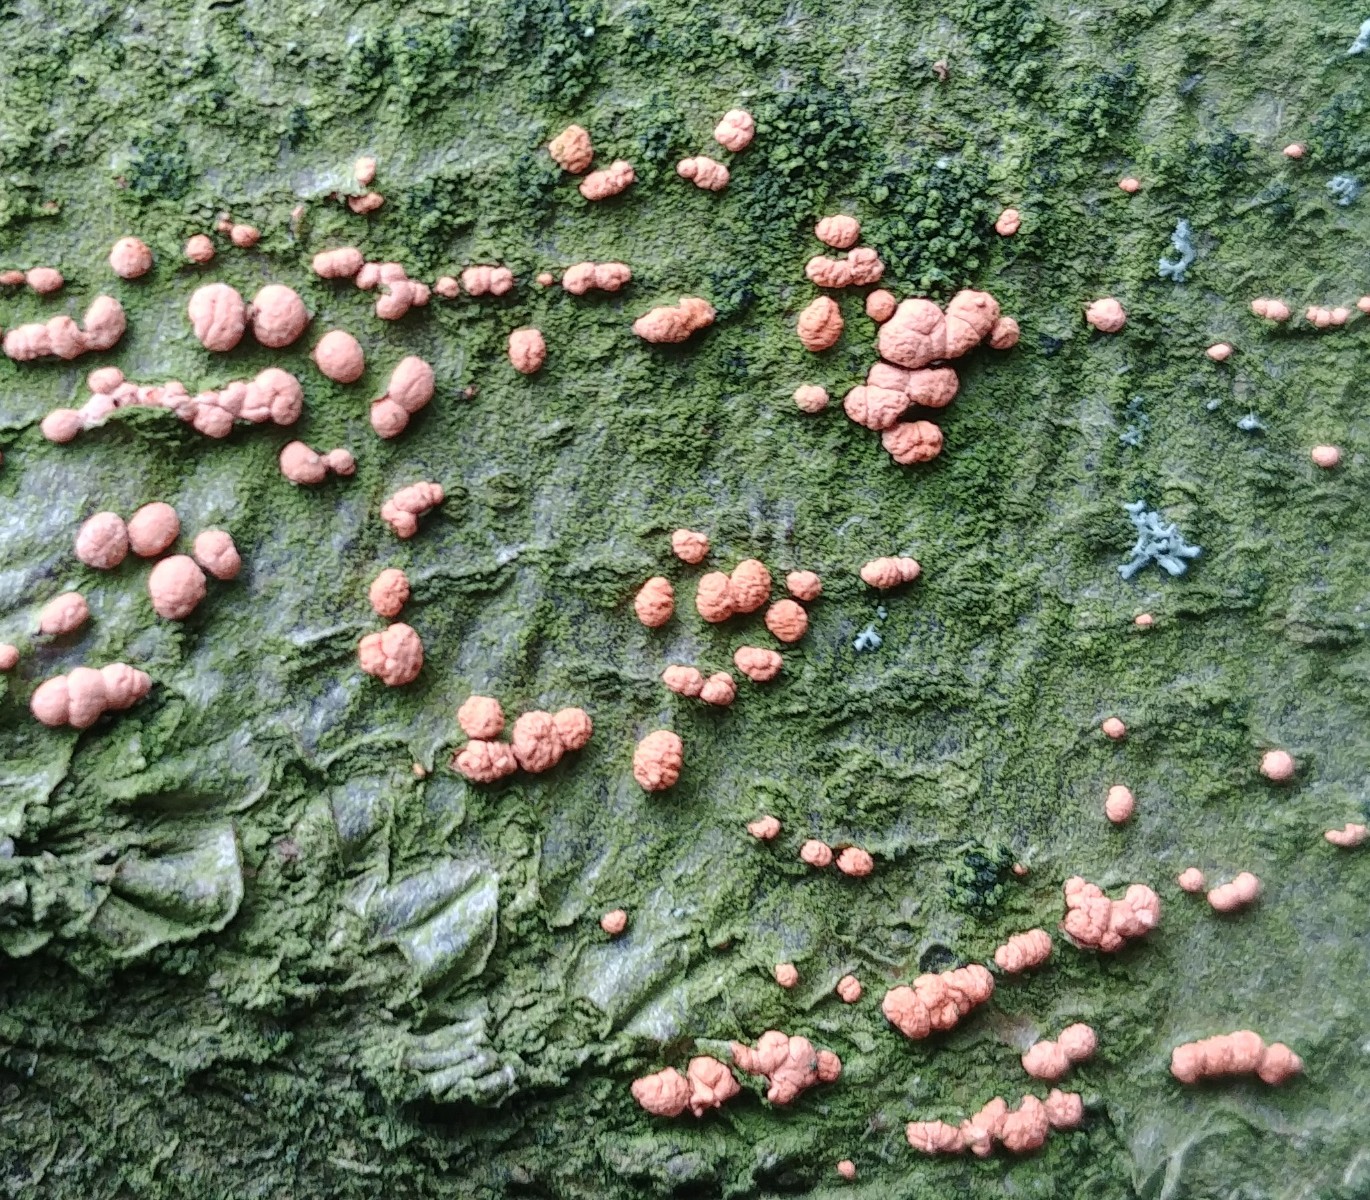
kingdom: Fungi
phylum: Ascomycota
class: Sordariomycetes
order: Hypocreales
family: Nectriaceae
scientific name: Nectriaceae
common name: cinnobersvampfamilien
